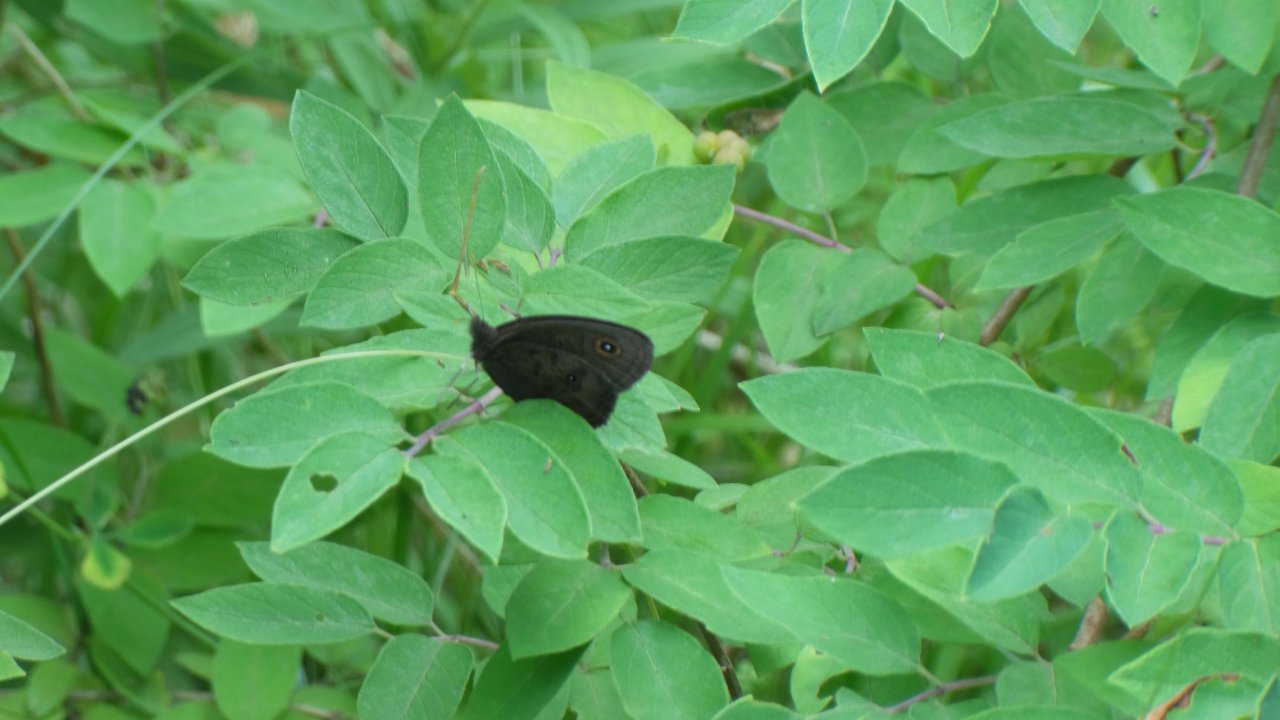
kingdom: Animalia
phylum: Arthropoda
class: Insecta
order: Lepidoptera
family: Nymphalidae
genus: Cercyonis
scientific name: Cercyonis pegala
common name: Common Wood-Nymph
